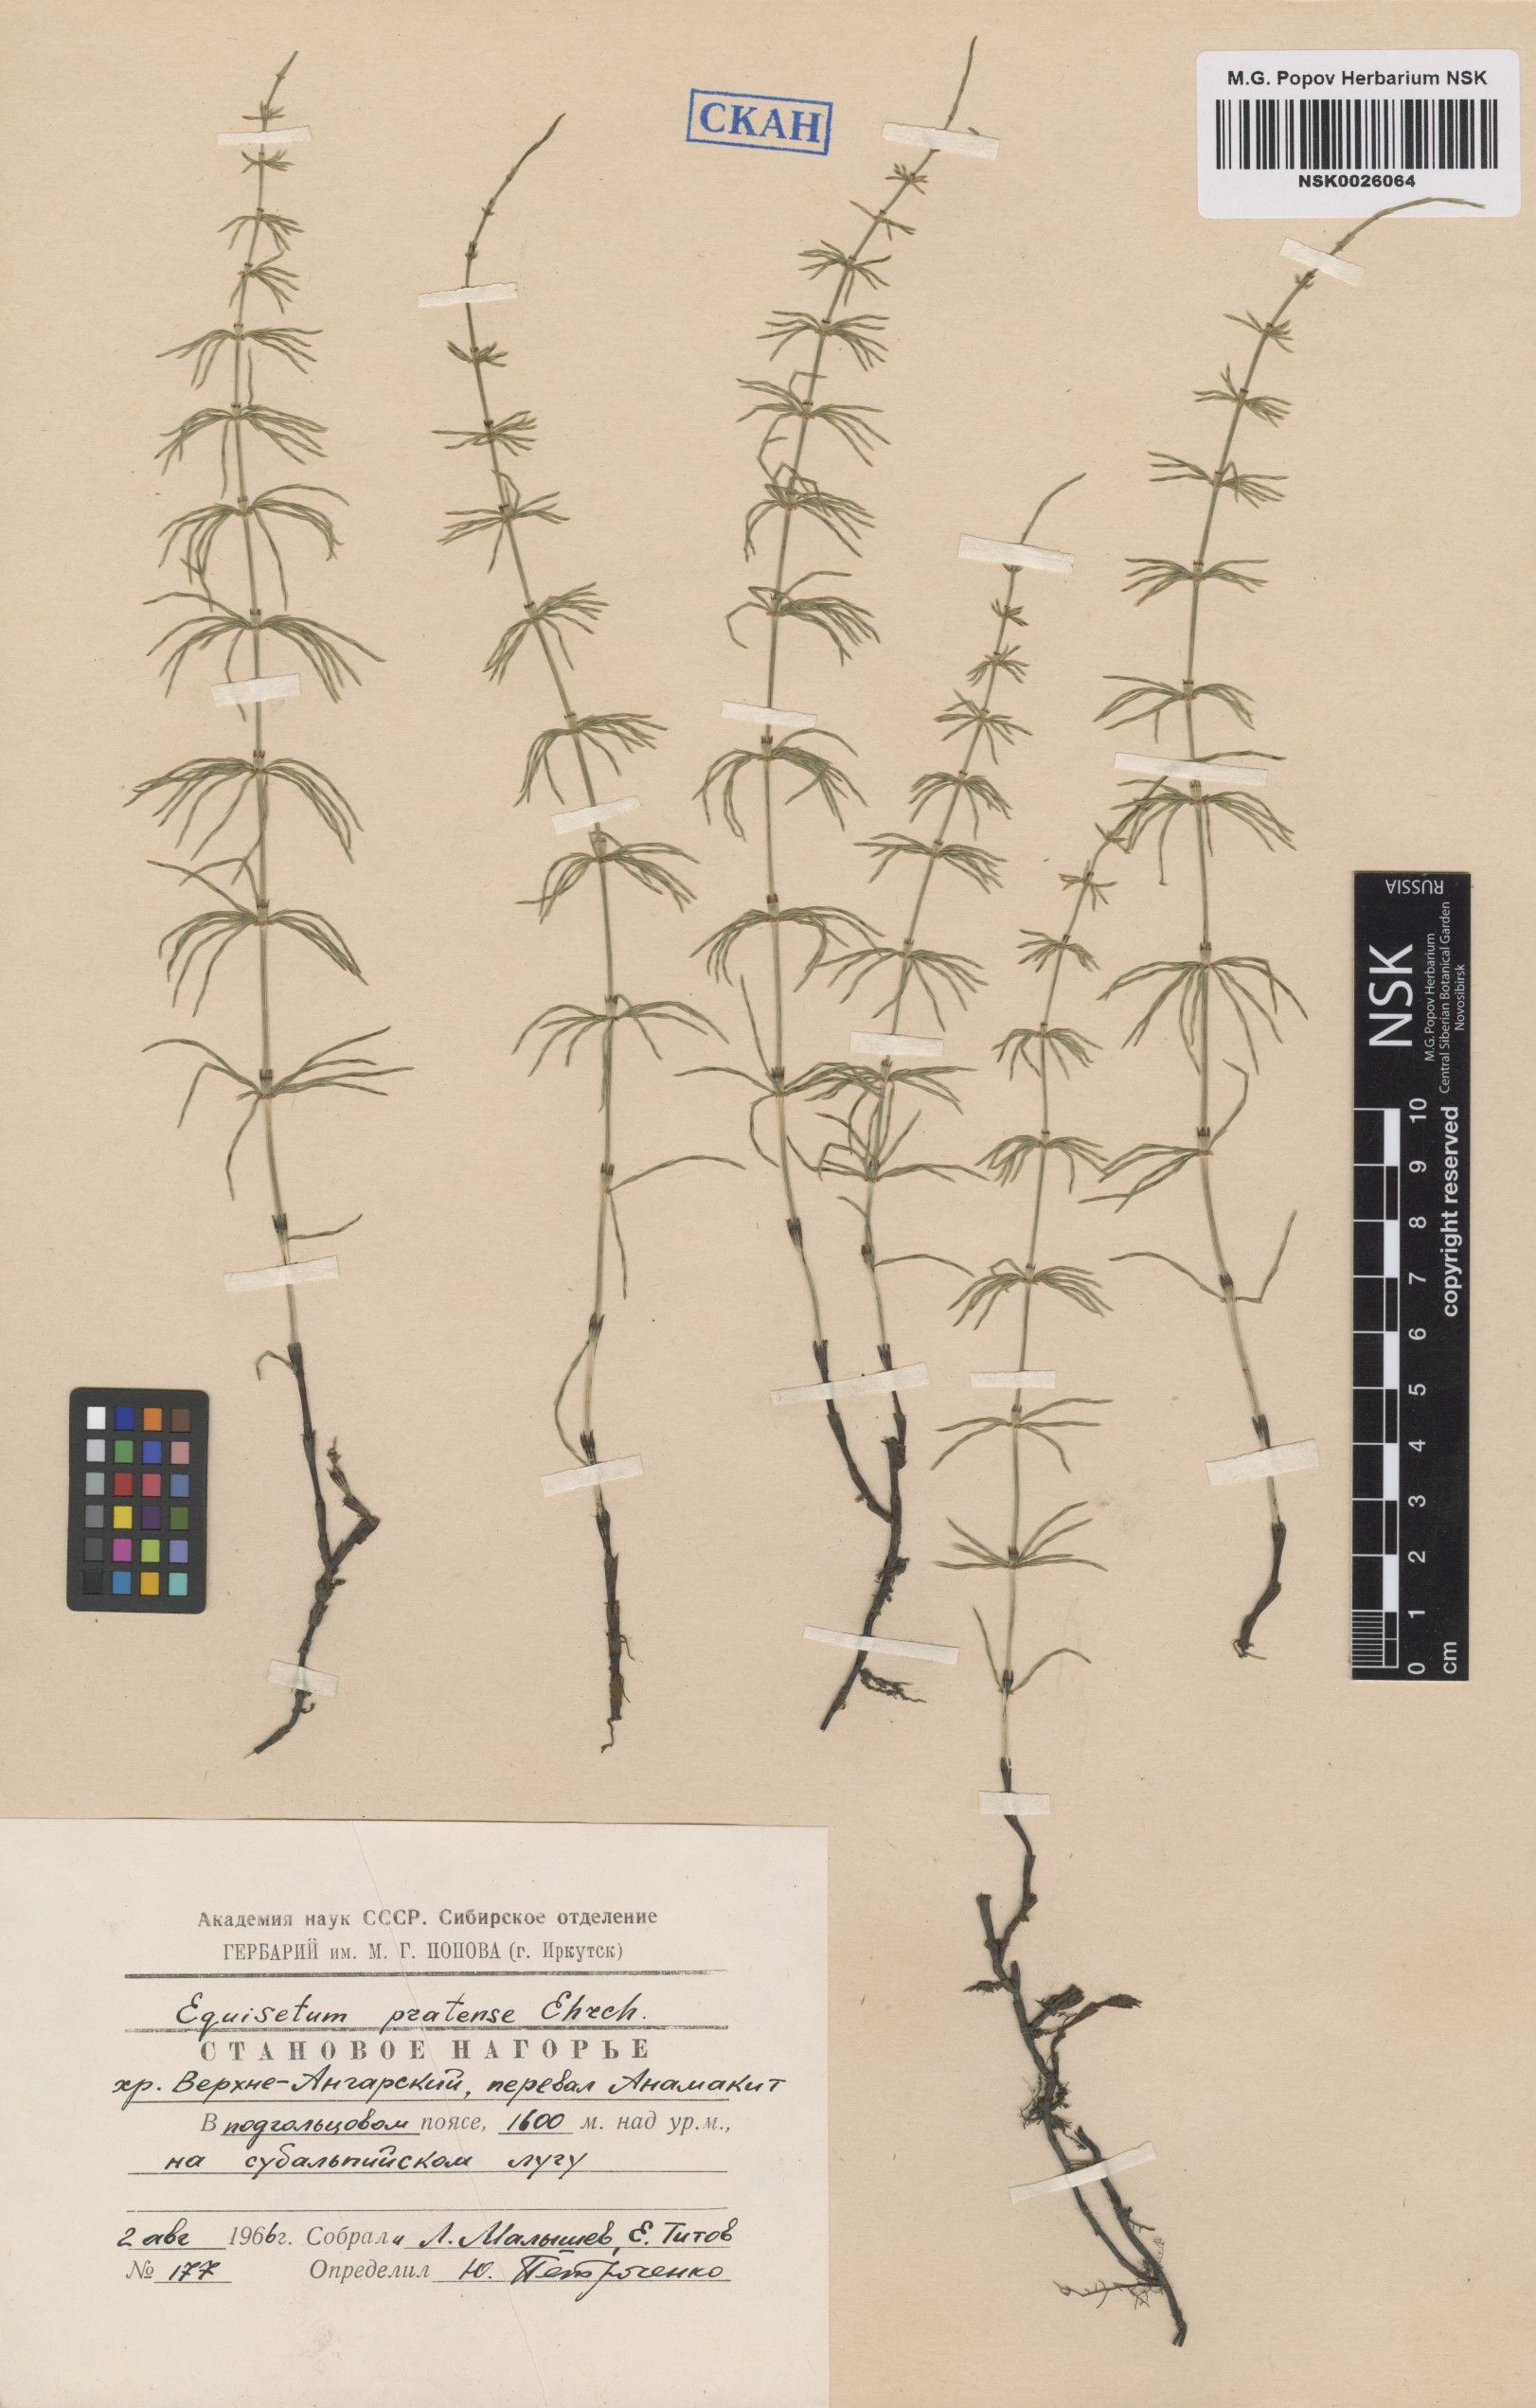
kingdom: Plantae
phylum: Tracheophyta
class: Polypodiopsida
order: Equisetales
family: Equisetaceae
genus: Equisetum
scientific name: Equisetum pratense
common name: Meadow horsetail
